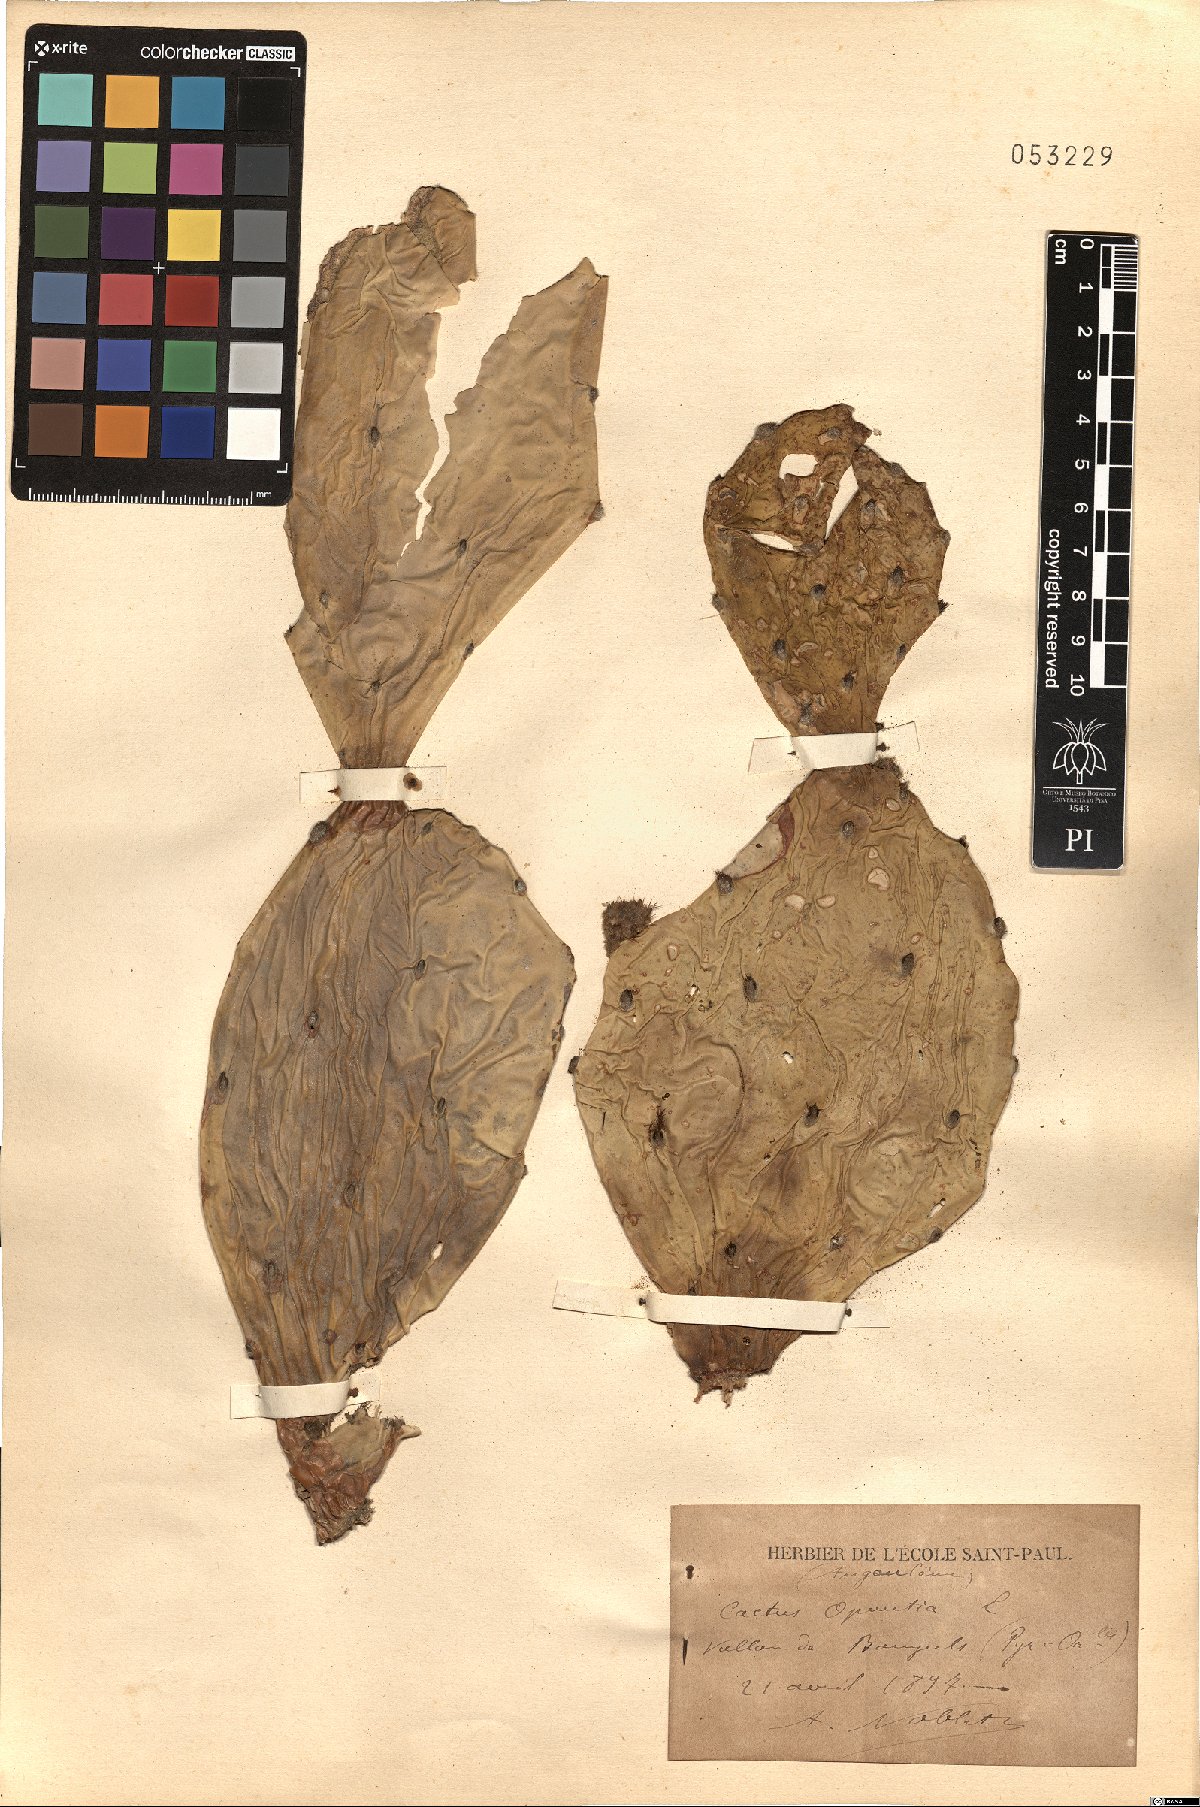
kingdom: Plantae
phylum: Tracheophyta
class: Magnoliopsida
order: Caryophyllales
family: Cactaceae
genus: Opuntia
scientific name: Opuntia
